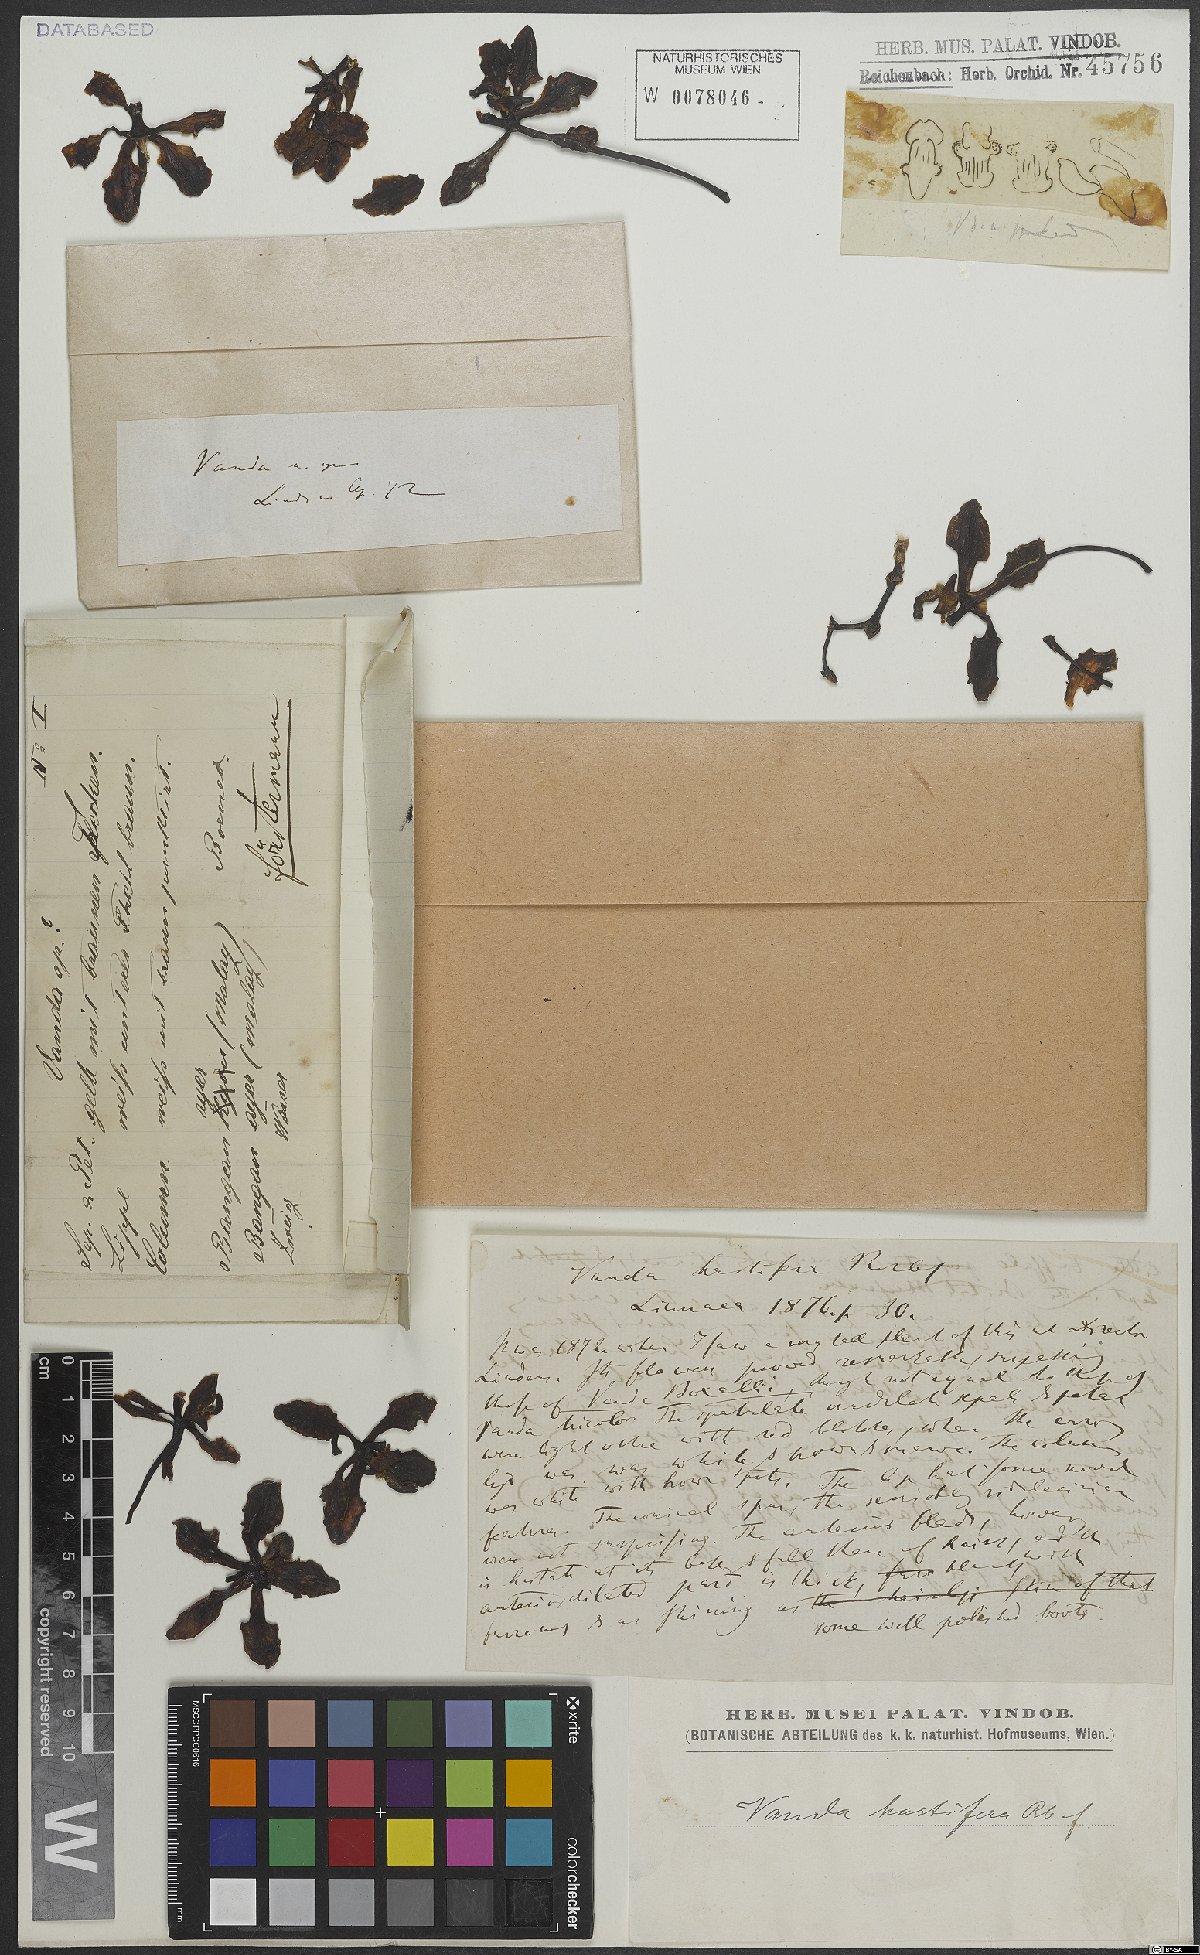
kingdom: Plantae
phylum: Tracheophyta
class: Liliopsida
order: Asparagales
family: Orchidaceae
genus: Vanda
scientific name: Vanda hastifera
